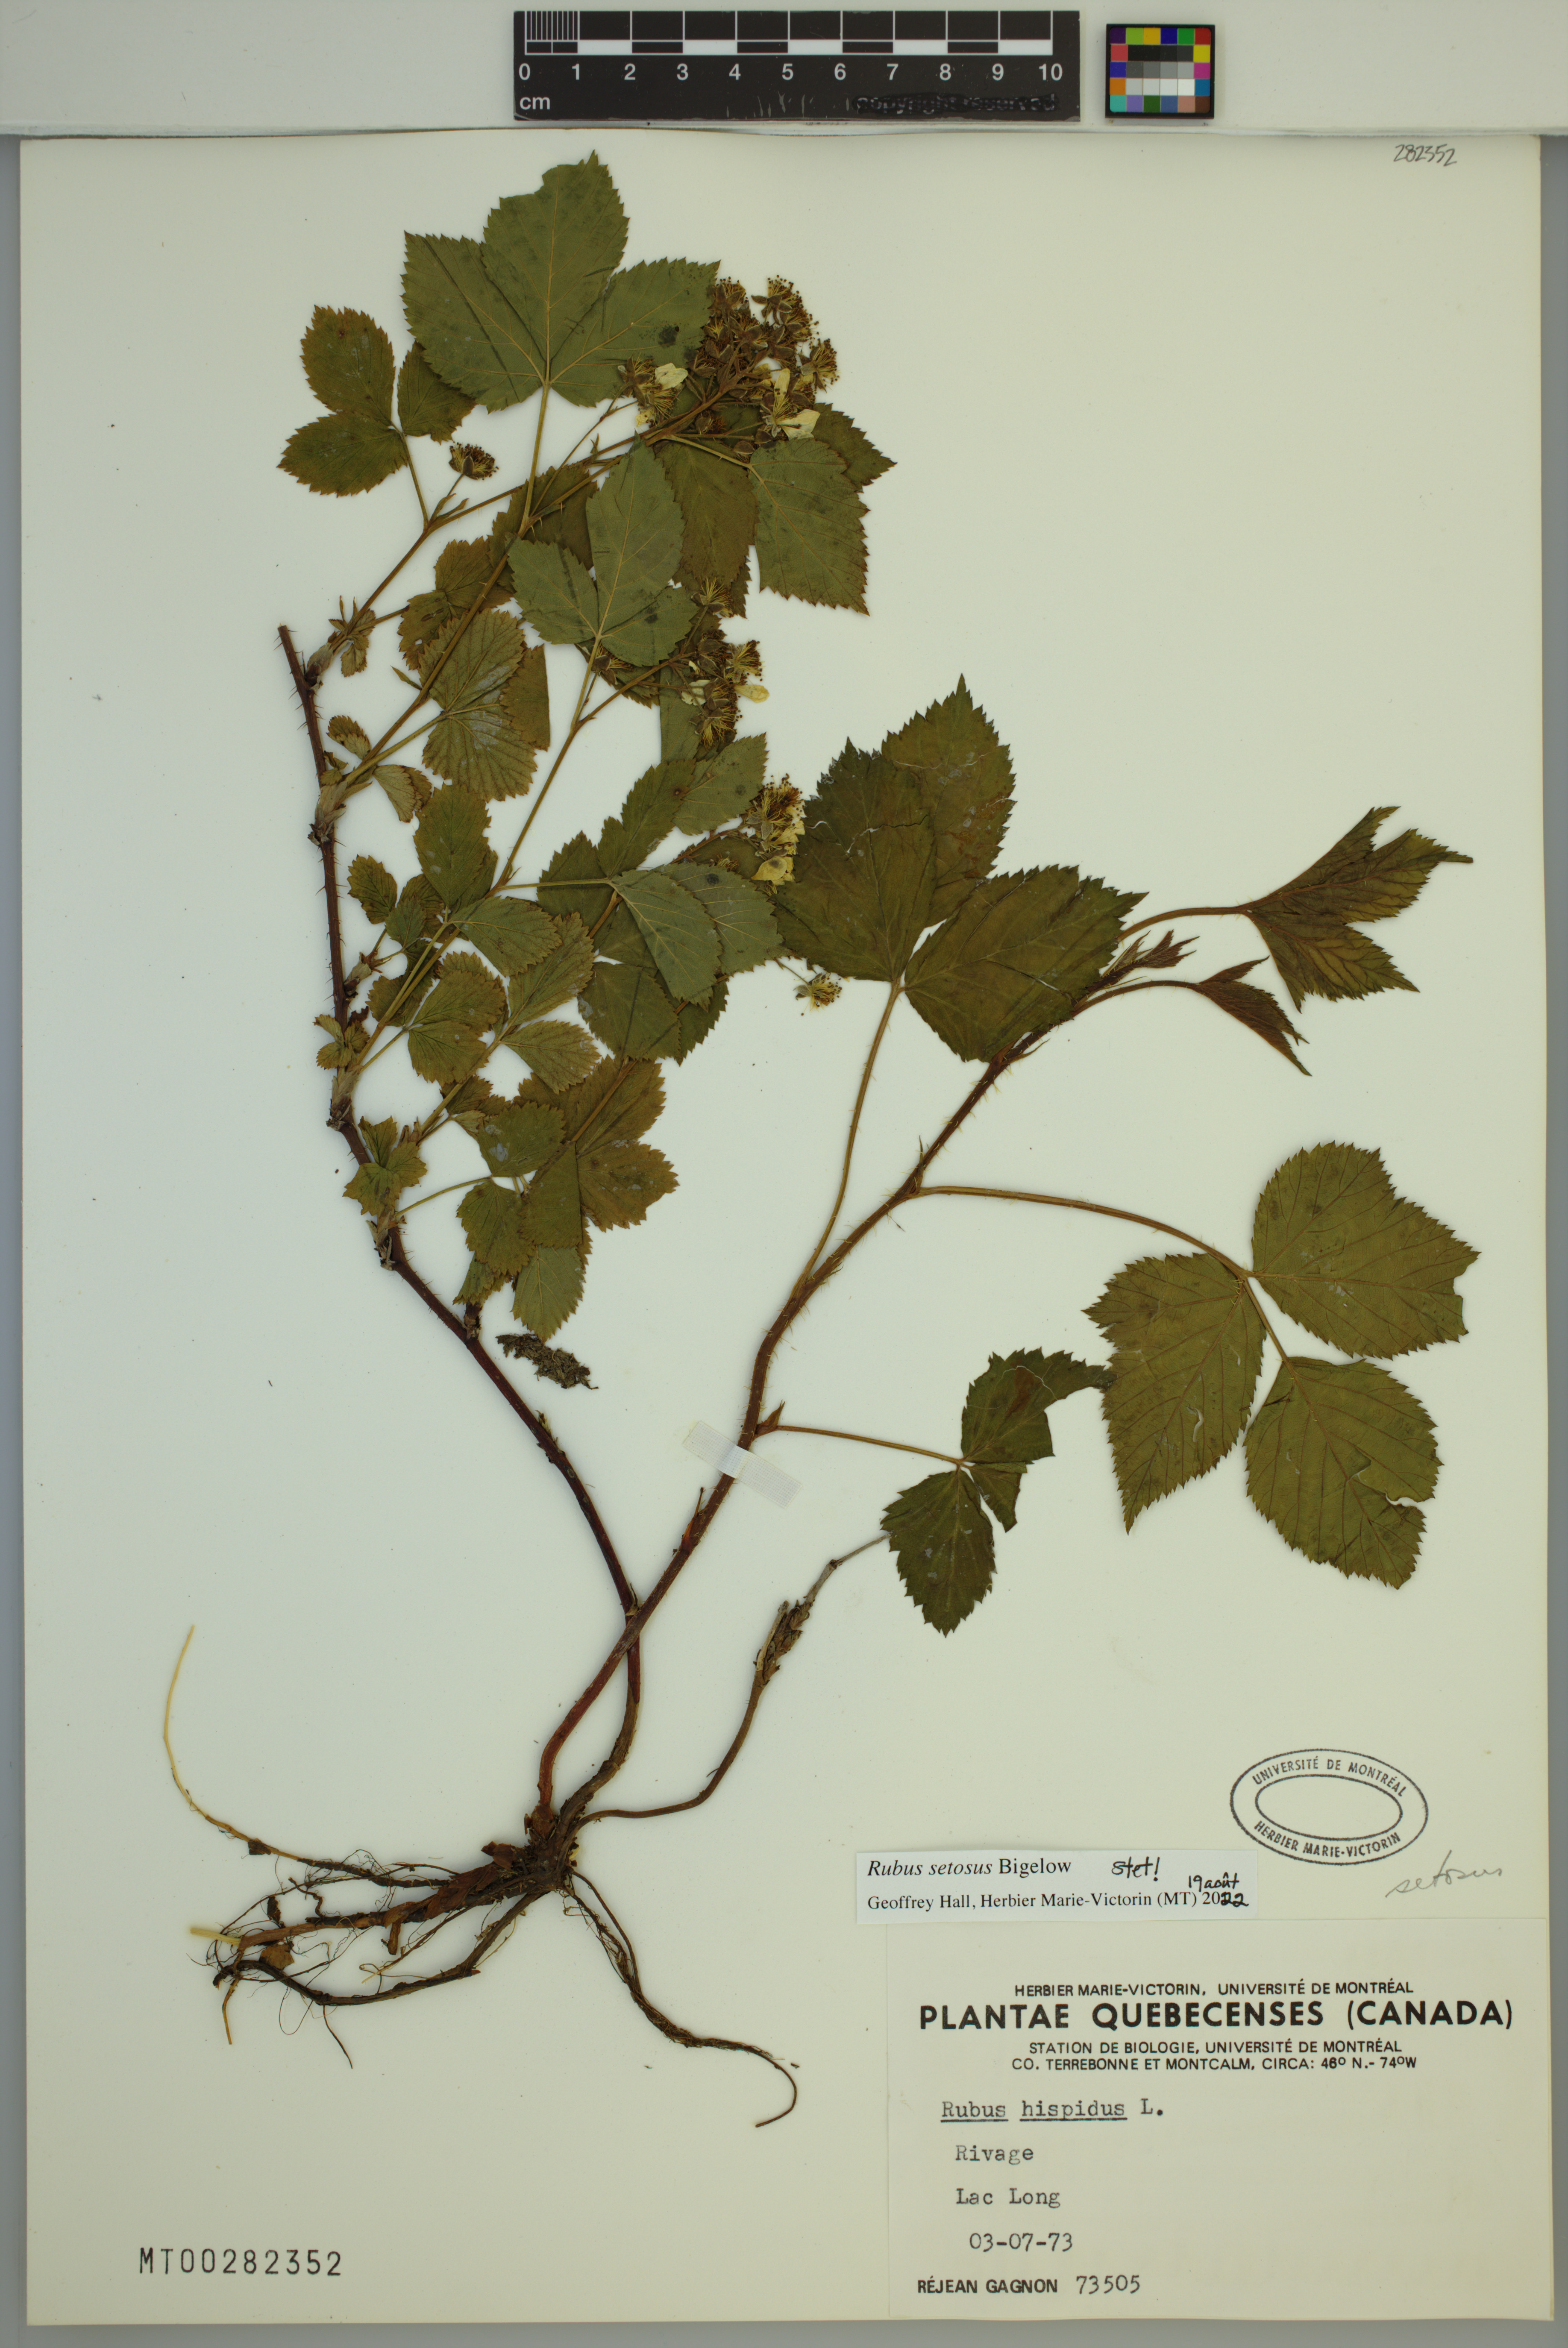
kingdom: Plantae
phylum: Tracheophyta
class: Magnoliopsida
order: Rosales
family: Rosaceae
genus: Rubus
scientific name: Rubus setosus
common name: Bristly blackberry
